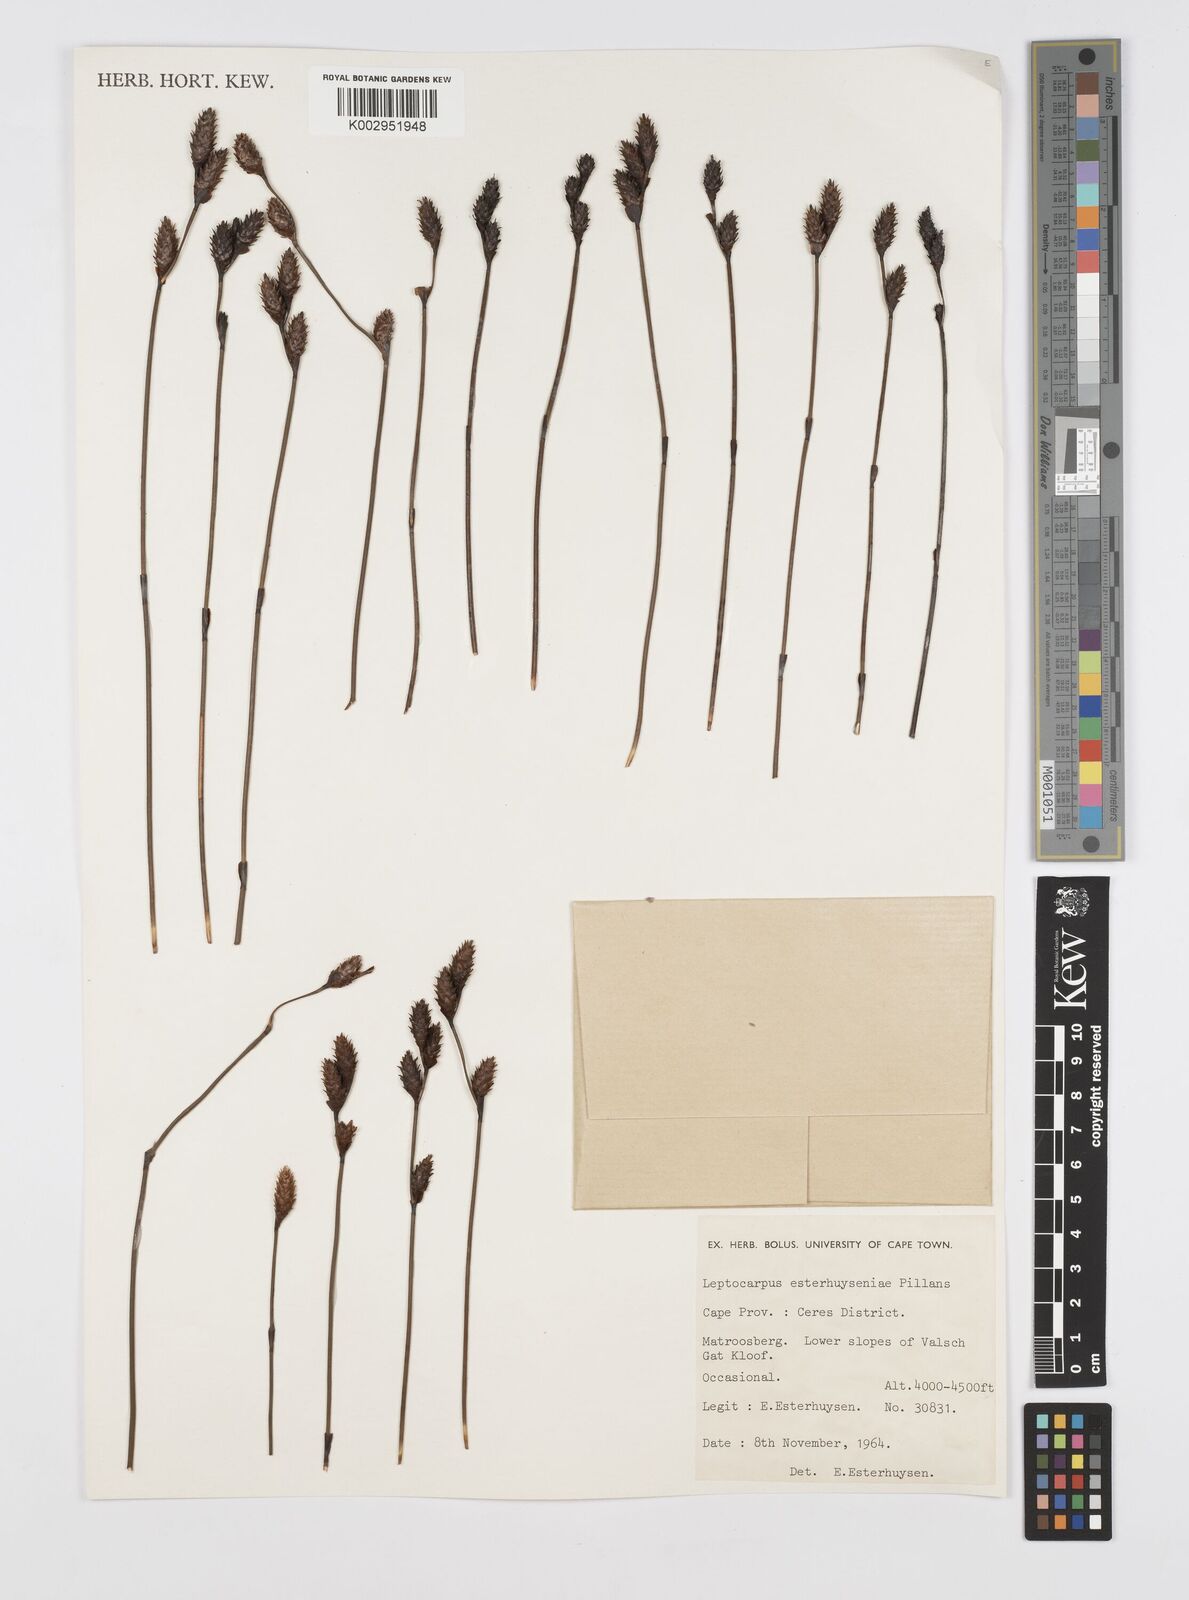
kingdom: Plantae
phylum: Tracheophyta
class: Liliopsida
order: Poales
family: Restionaceae
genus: Restio
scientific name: Restio esterhuyseniae
